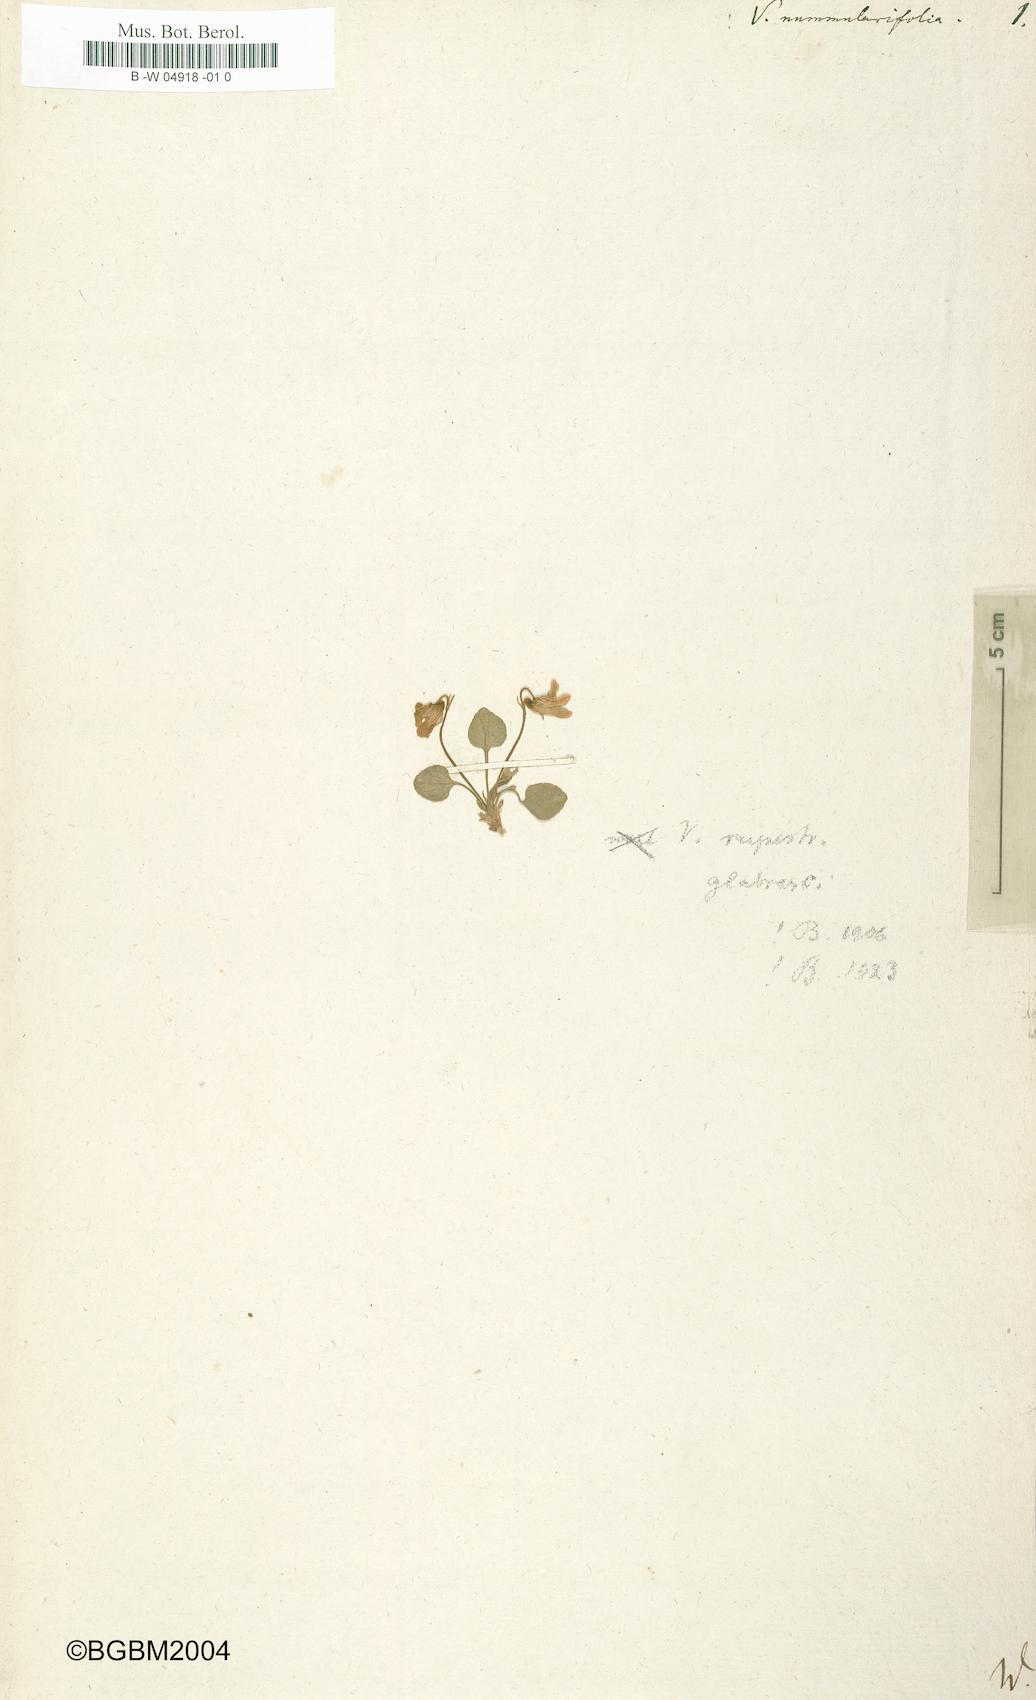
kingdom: Plantae
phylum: Tracheophyta
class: Magnoliopsida
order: Malpighiales
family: Violaceae
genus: Viola
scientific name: Viola nummulariifolia
